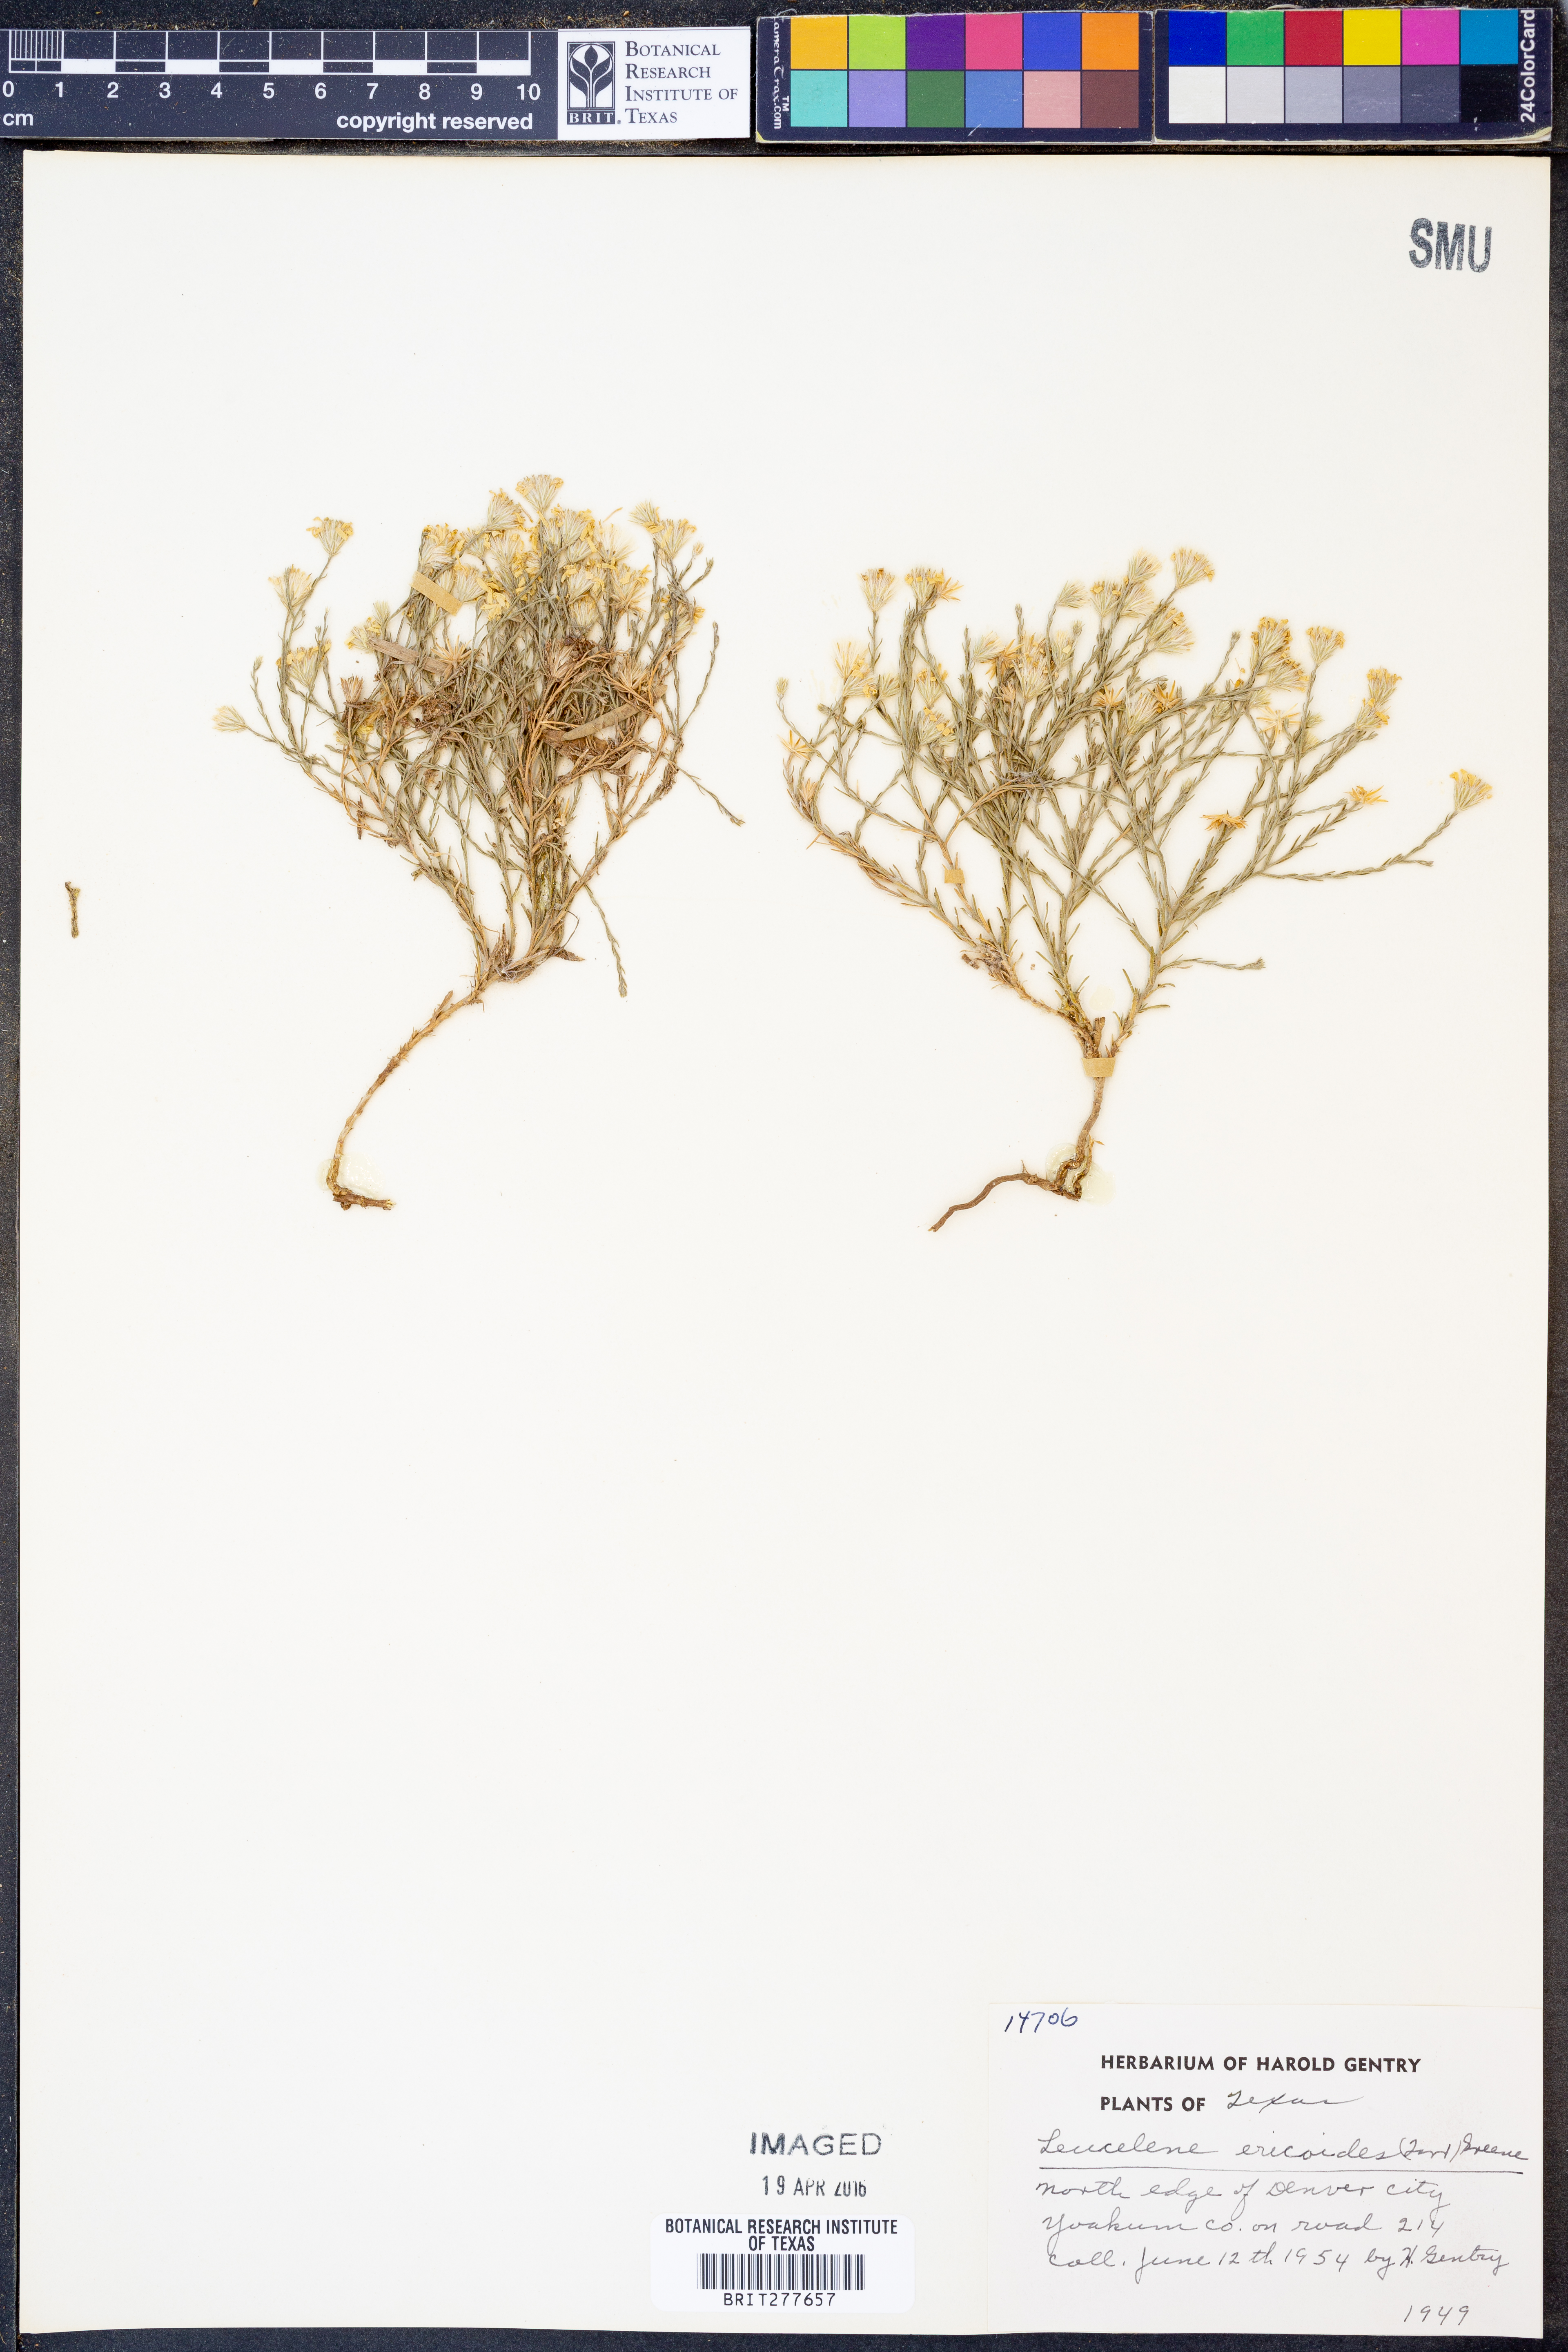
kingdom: Plantae
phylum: Tracheophyta
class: Magnoliopsida
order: Asterales
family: Asteraceae
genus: Chaetopappa
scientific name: Chaetopappa ericoides
